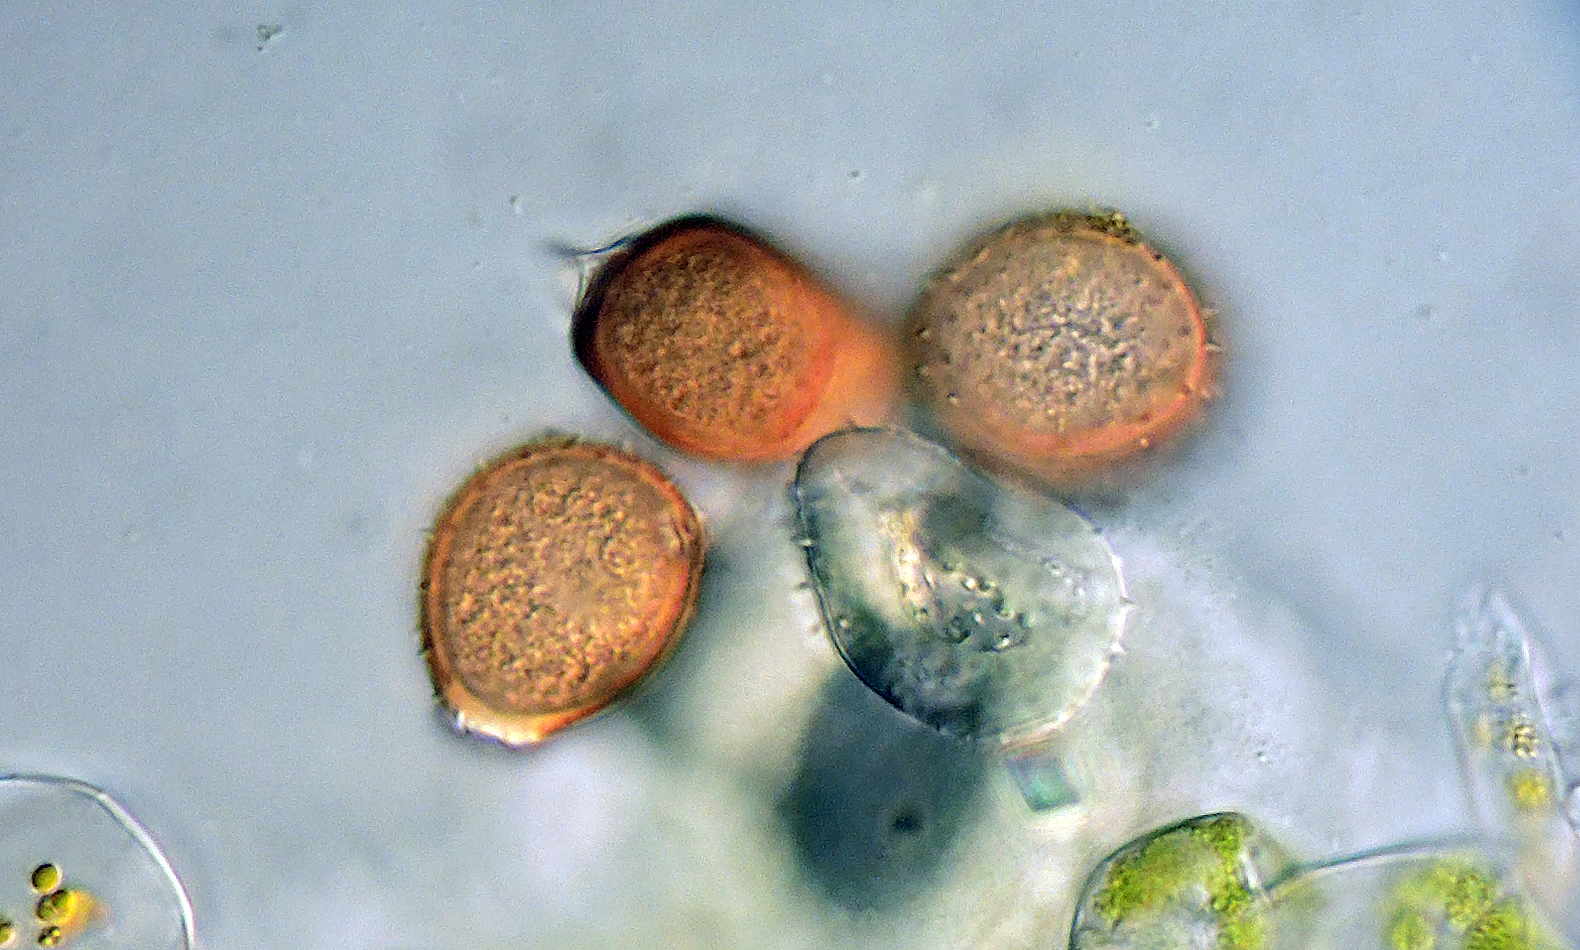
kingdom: Fungi
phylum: Basidiomycota
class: Pucciniomycetes
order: Pucciniales
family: Pucciniaceae
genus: Uromyces
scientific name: Uromyces rumicis
